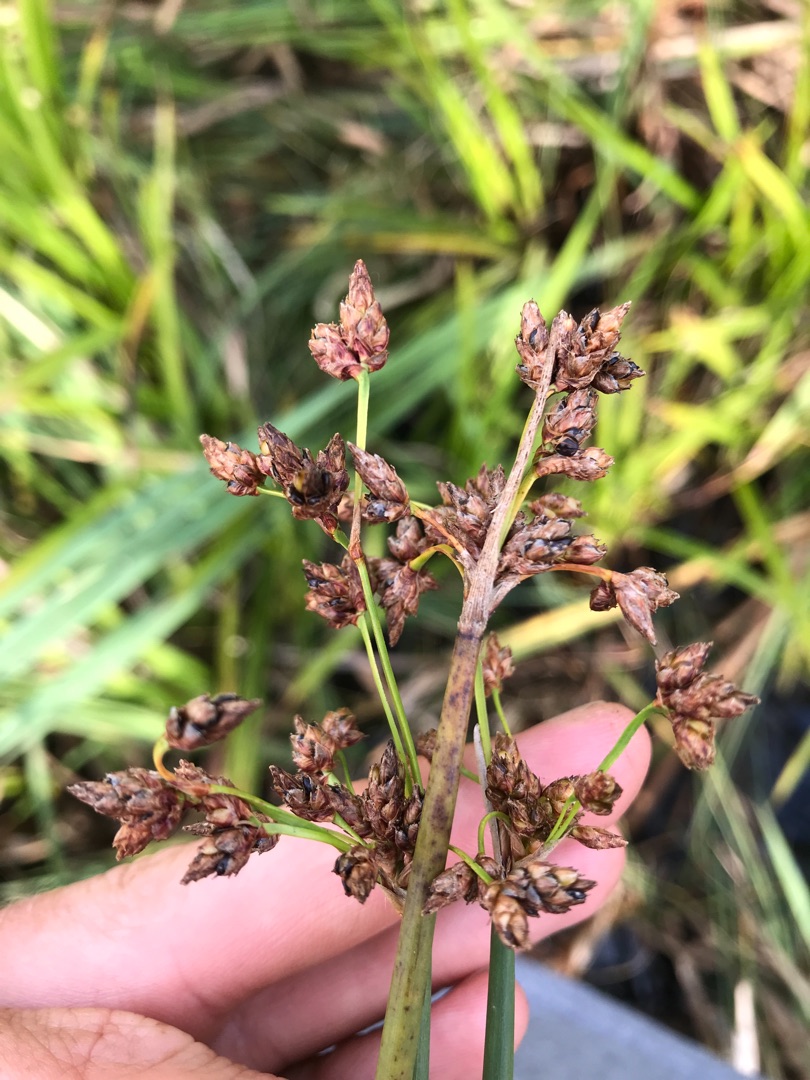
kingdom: Plantae
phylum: Tracheophyta
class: Liliopsida
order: Poales
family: Cyperaceae
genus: Schoenoplectus
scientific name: Schoenoplectus lacustris
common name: Sø-kogleaks
